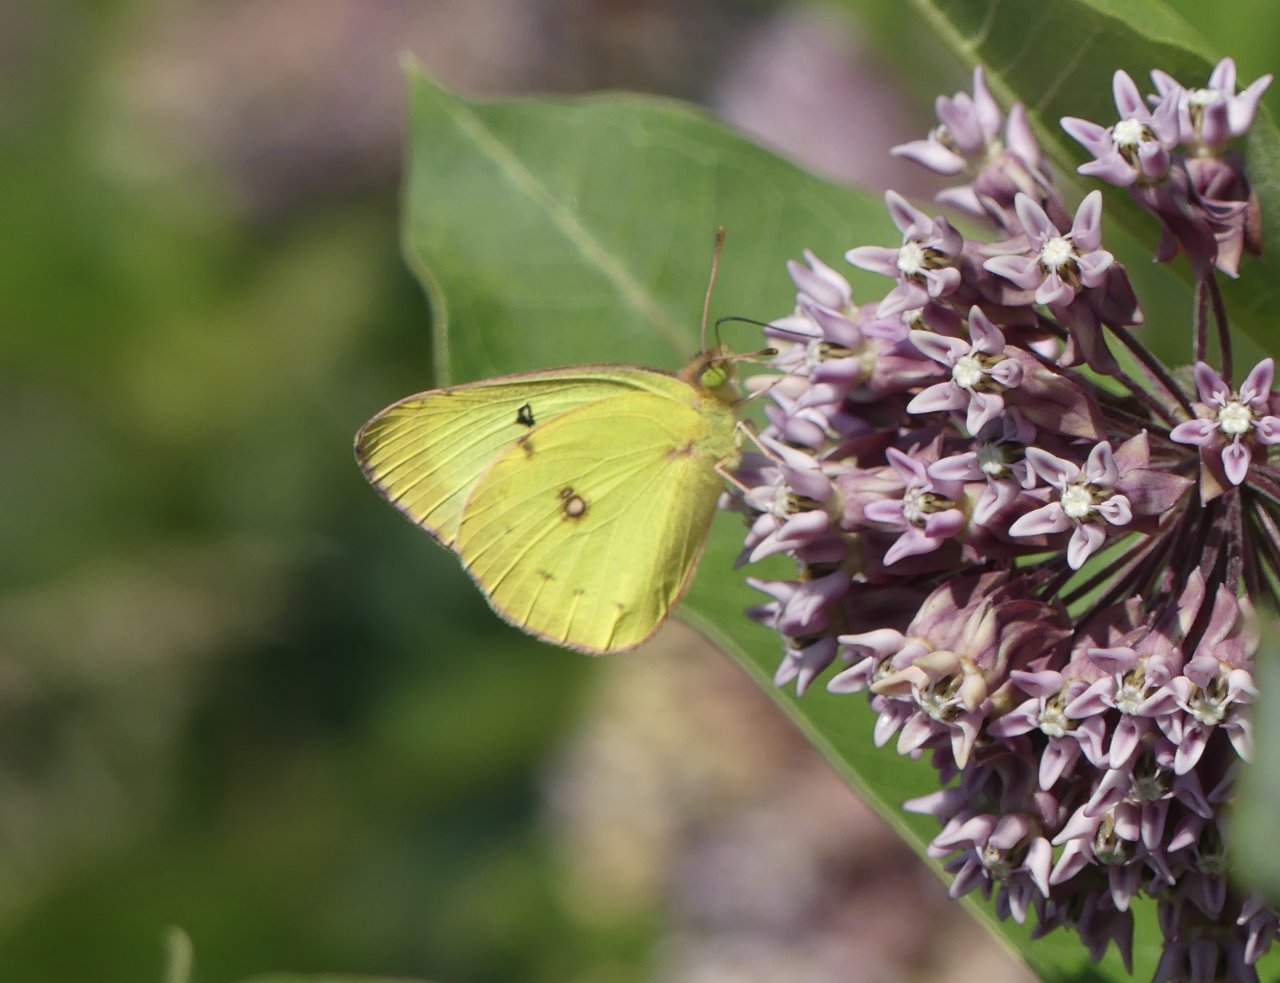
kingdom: Animalia
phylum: Arthropoda
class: Insecta
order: Lepidoptera
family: Pieridae
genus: Colias
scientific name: Colias eurytheme
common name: Orange Sulphur
